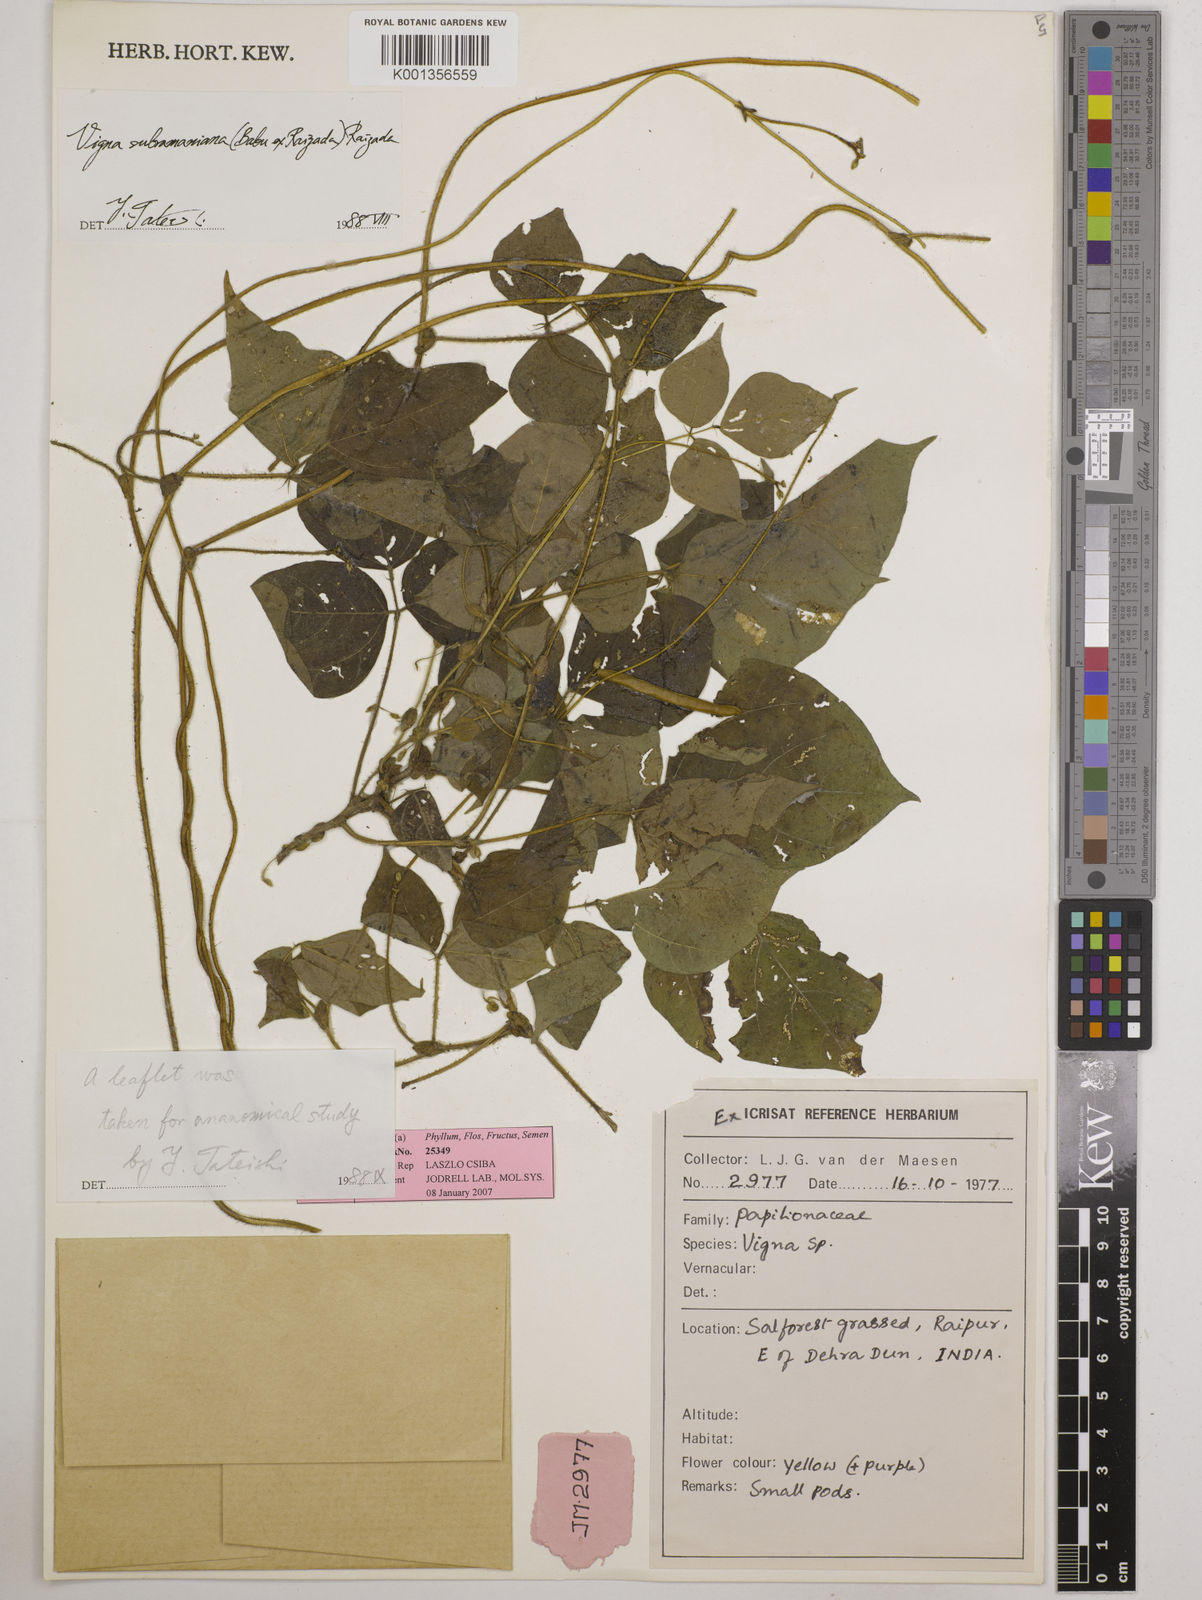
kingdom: Plantae
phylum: Tracheophyta
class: Magnoliopsida
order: Fabales
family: Fabaceae
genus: Vigna
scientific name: Vigna subramaniana
